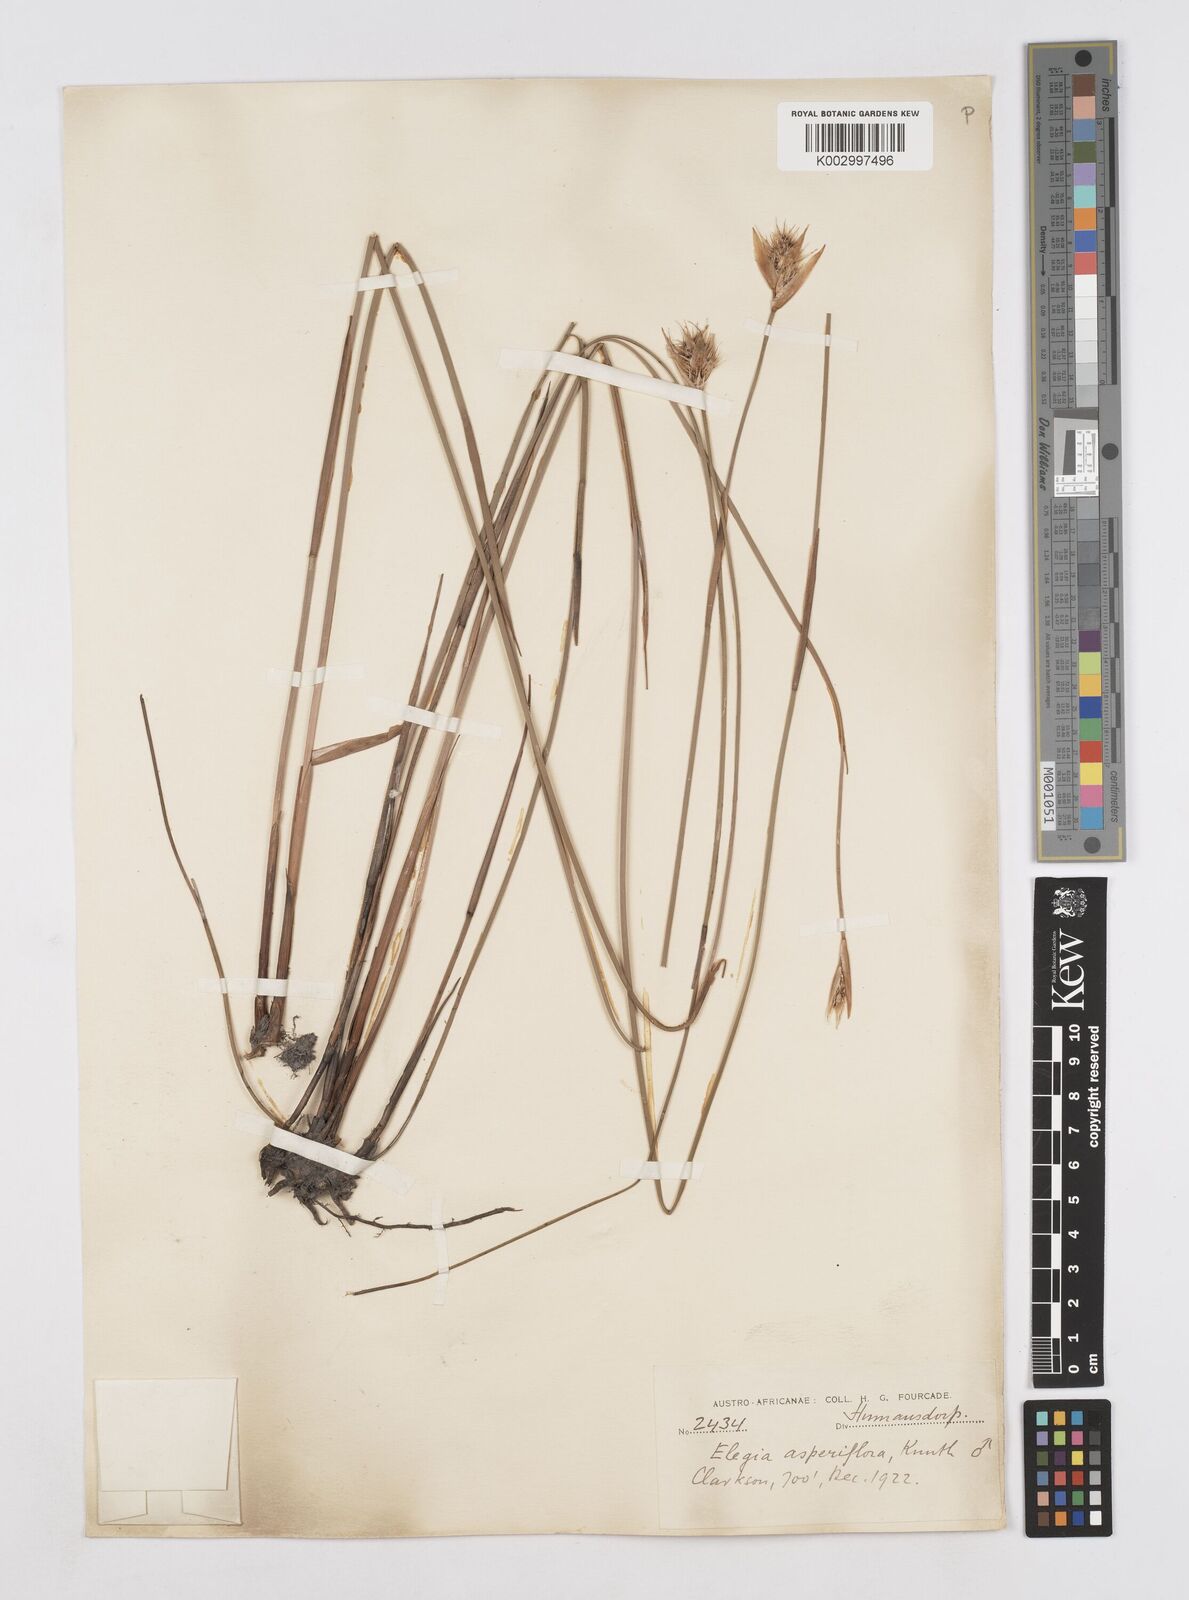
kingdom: Plantae
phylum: Tracheophyta
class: Liliopsida
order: Poales
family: Restionaceae
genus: Elegia
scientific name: Elegia asperiflora
